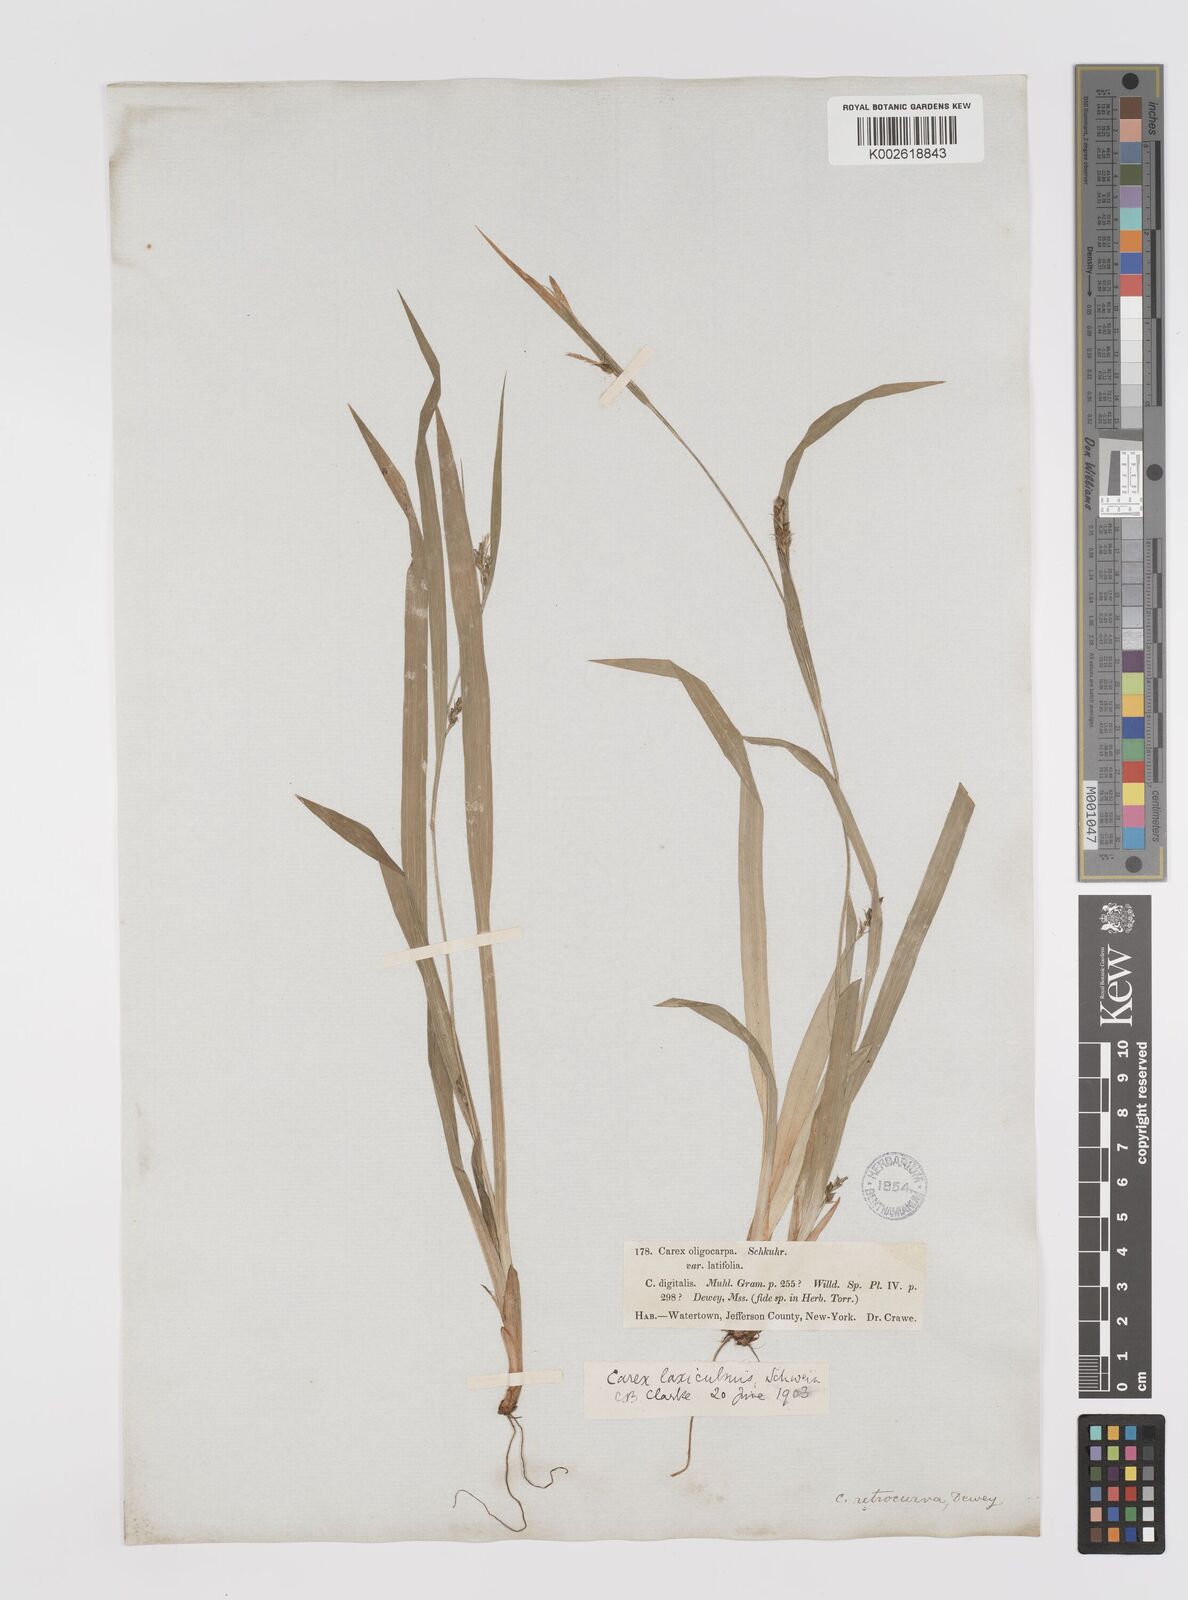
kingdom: Plantae
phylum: Tracheophyta
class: Liliopsida
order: Poales
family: Cyperaceae
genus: Carex
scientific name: Carex laxiculmis
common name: Spreading sedge
